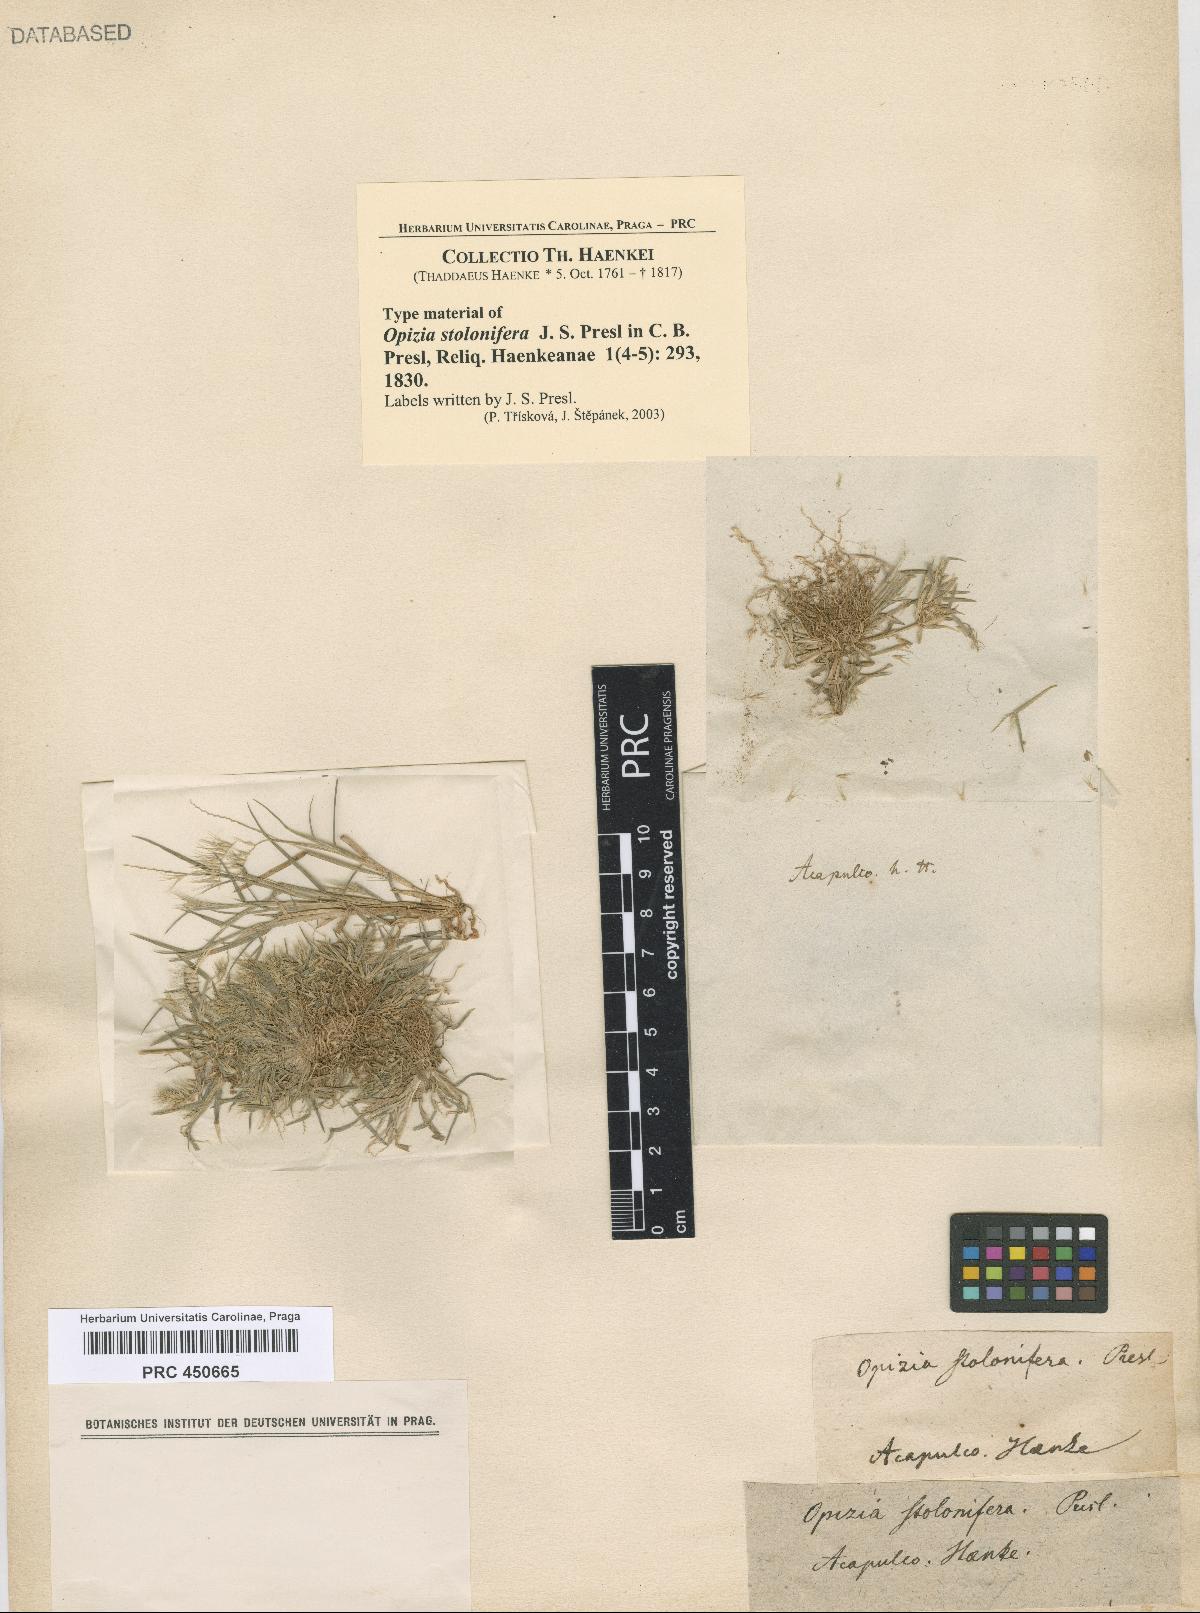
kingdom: Plantae
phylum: Tracheophyta
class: Liliopsida
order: Poales
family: Poaceae
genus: Bouteloua
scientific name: Bouteloua dimorpha
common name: Acapulco grass
